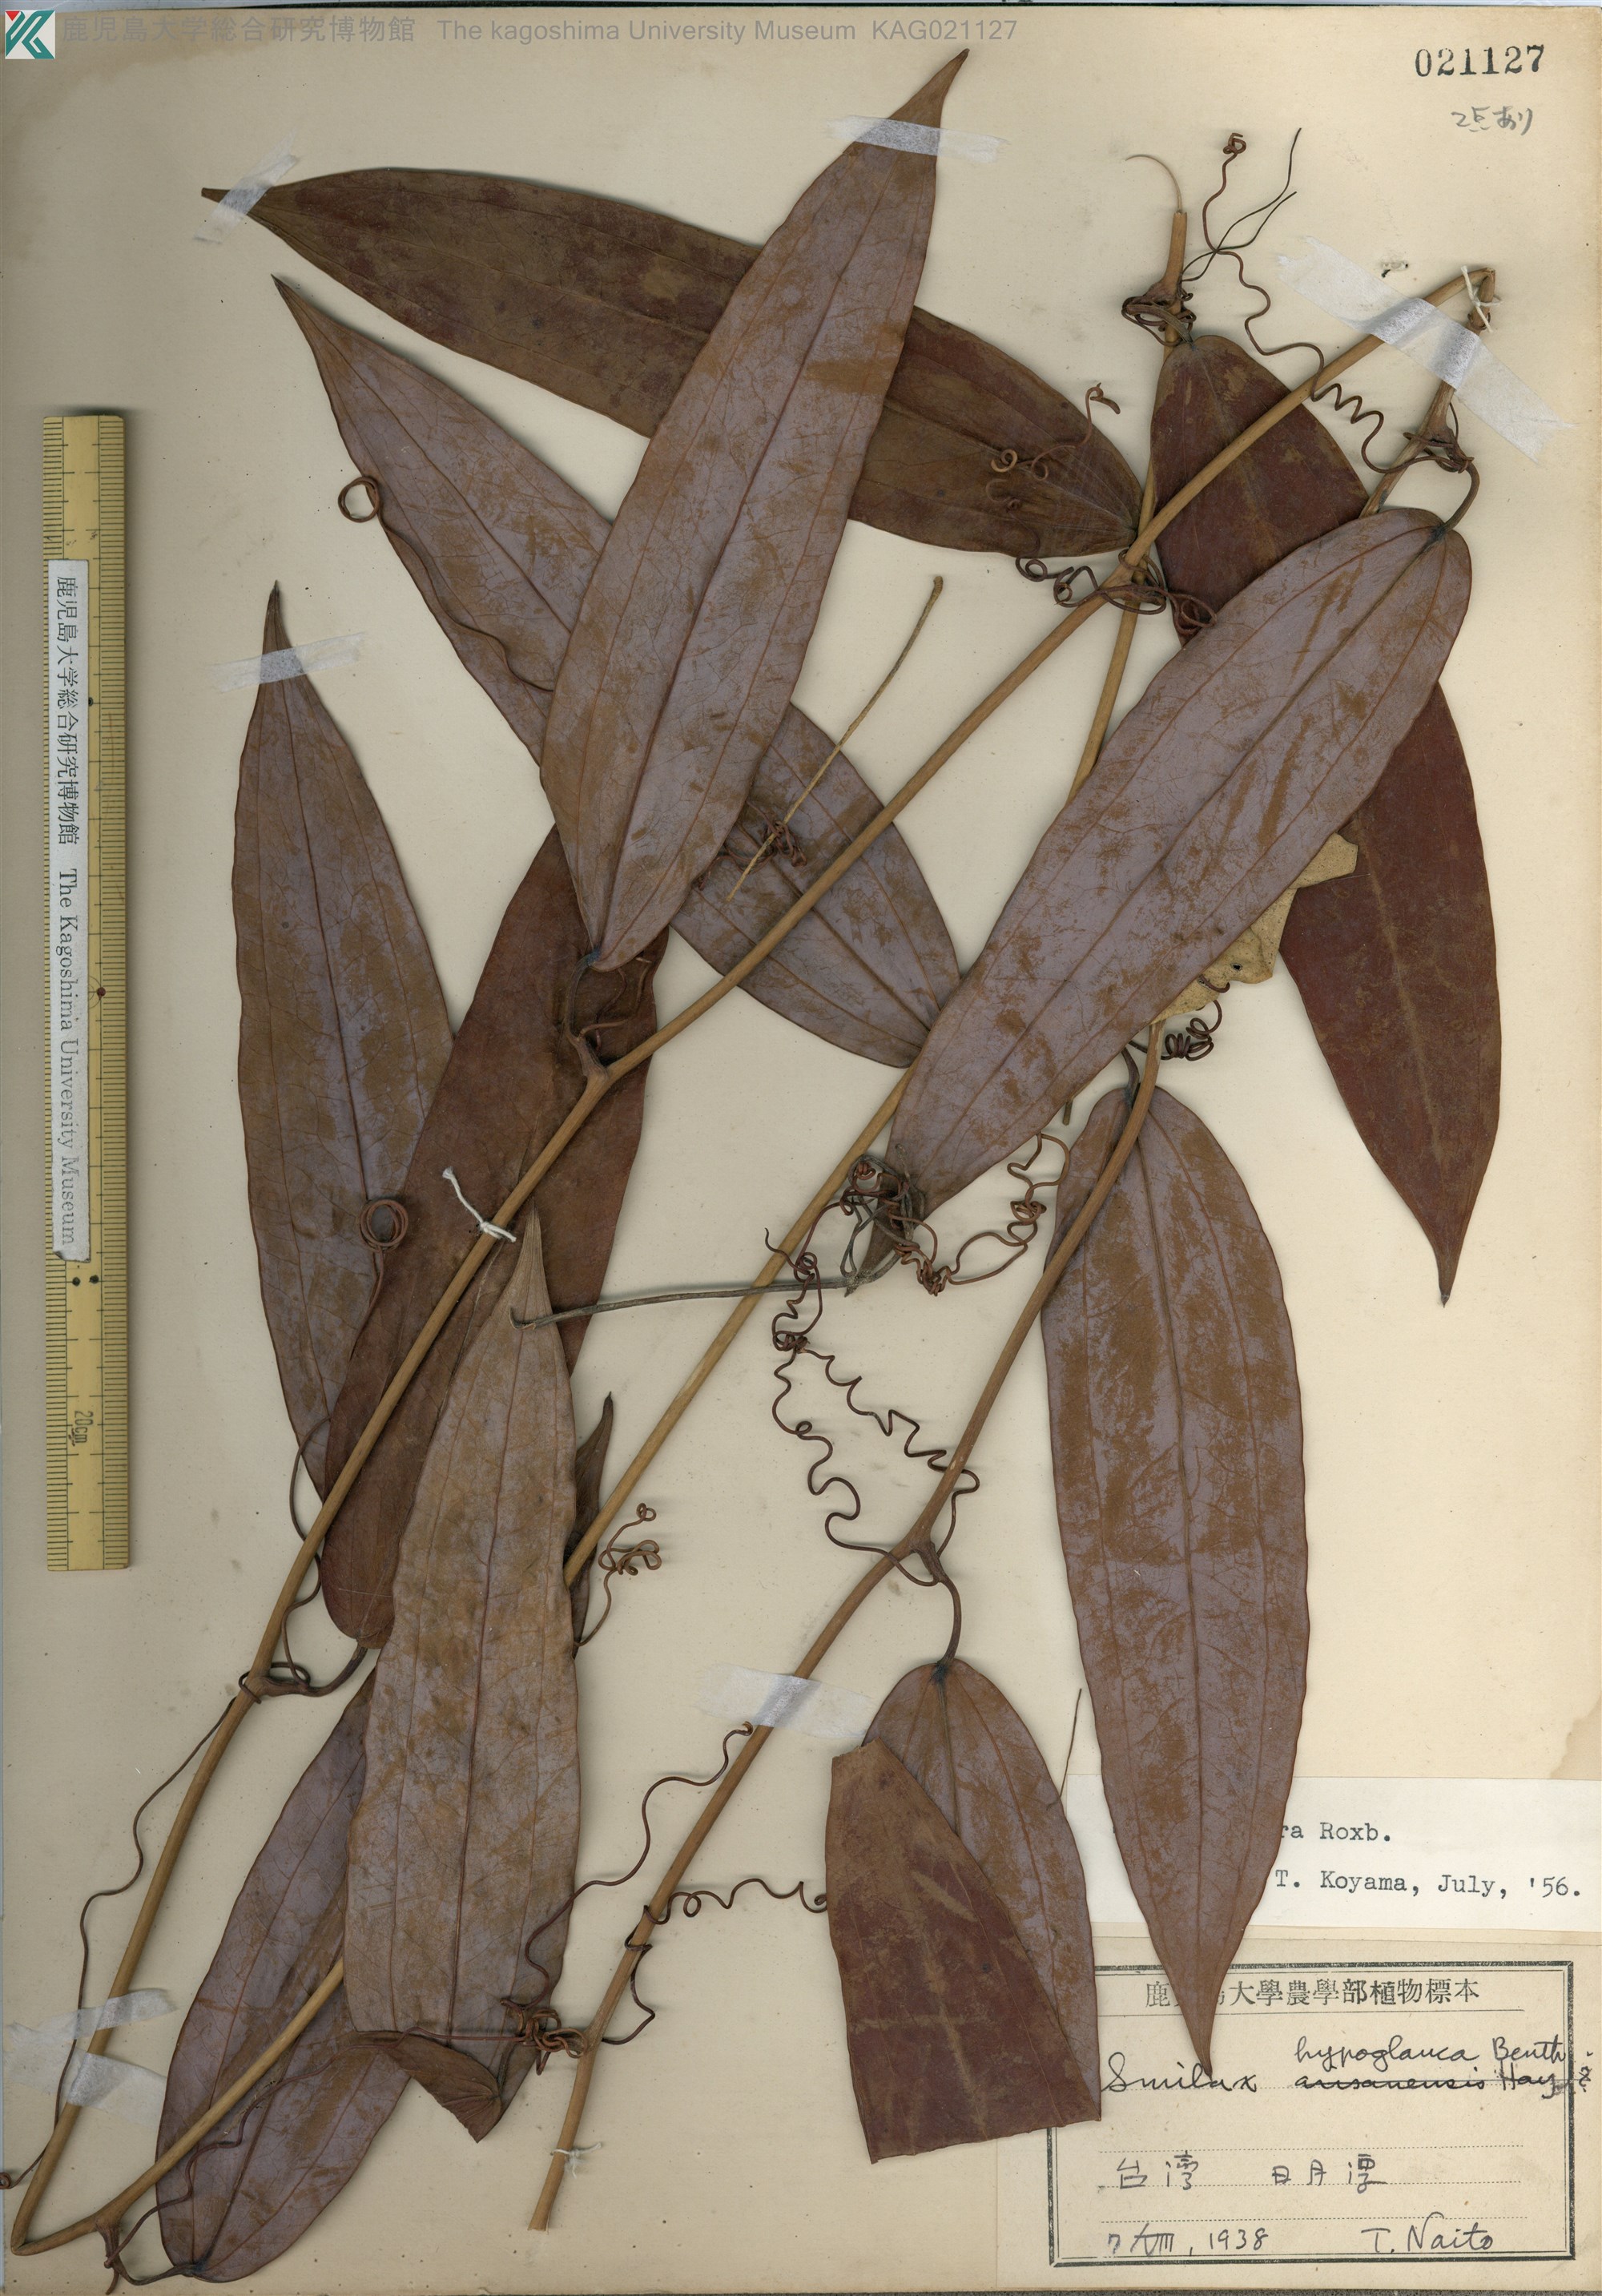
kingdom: Plantae
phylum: Tracheophyta
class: Liliopsida
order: Liliales
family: Smilacaceae
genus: Smilax
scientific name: Smilax glabra
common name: Chinese smilax
